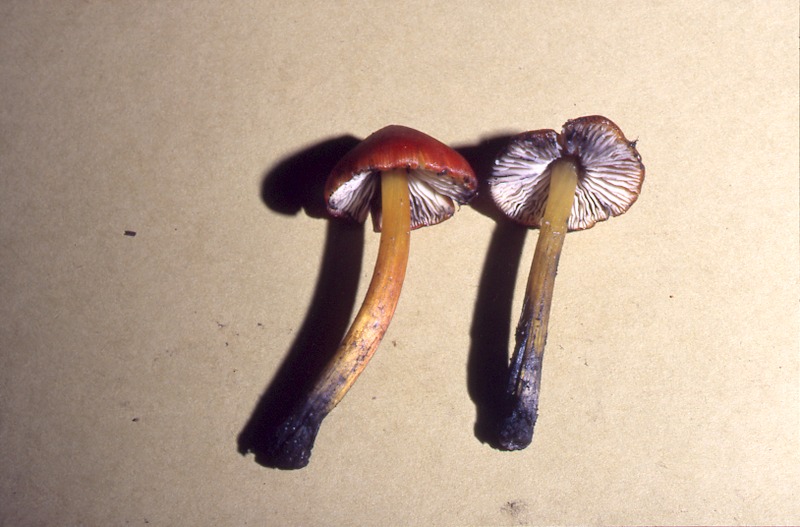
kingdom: Fungi
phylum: Basidiomycota
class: Agaricomycetes
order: Agaricales
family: Hygrophoraceae
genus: Hygrocybe
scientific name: Hygrocybe conica
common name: Blackening wax-cap
